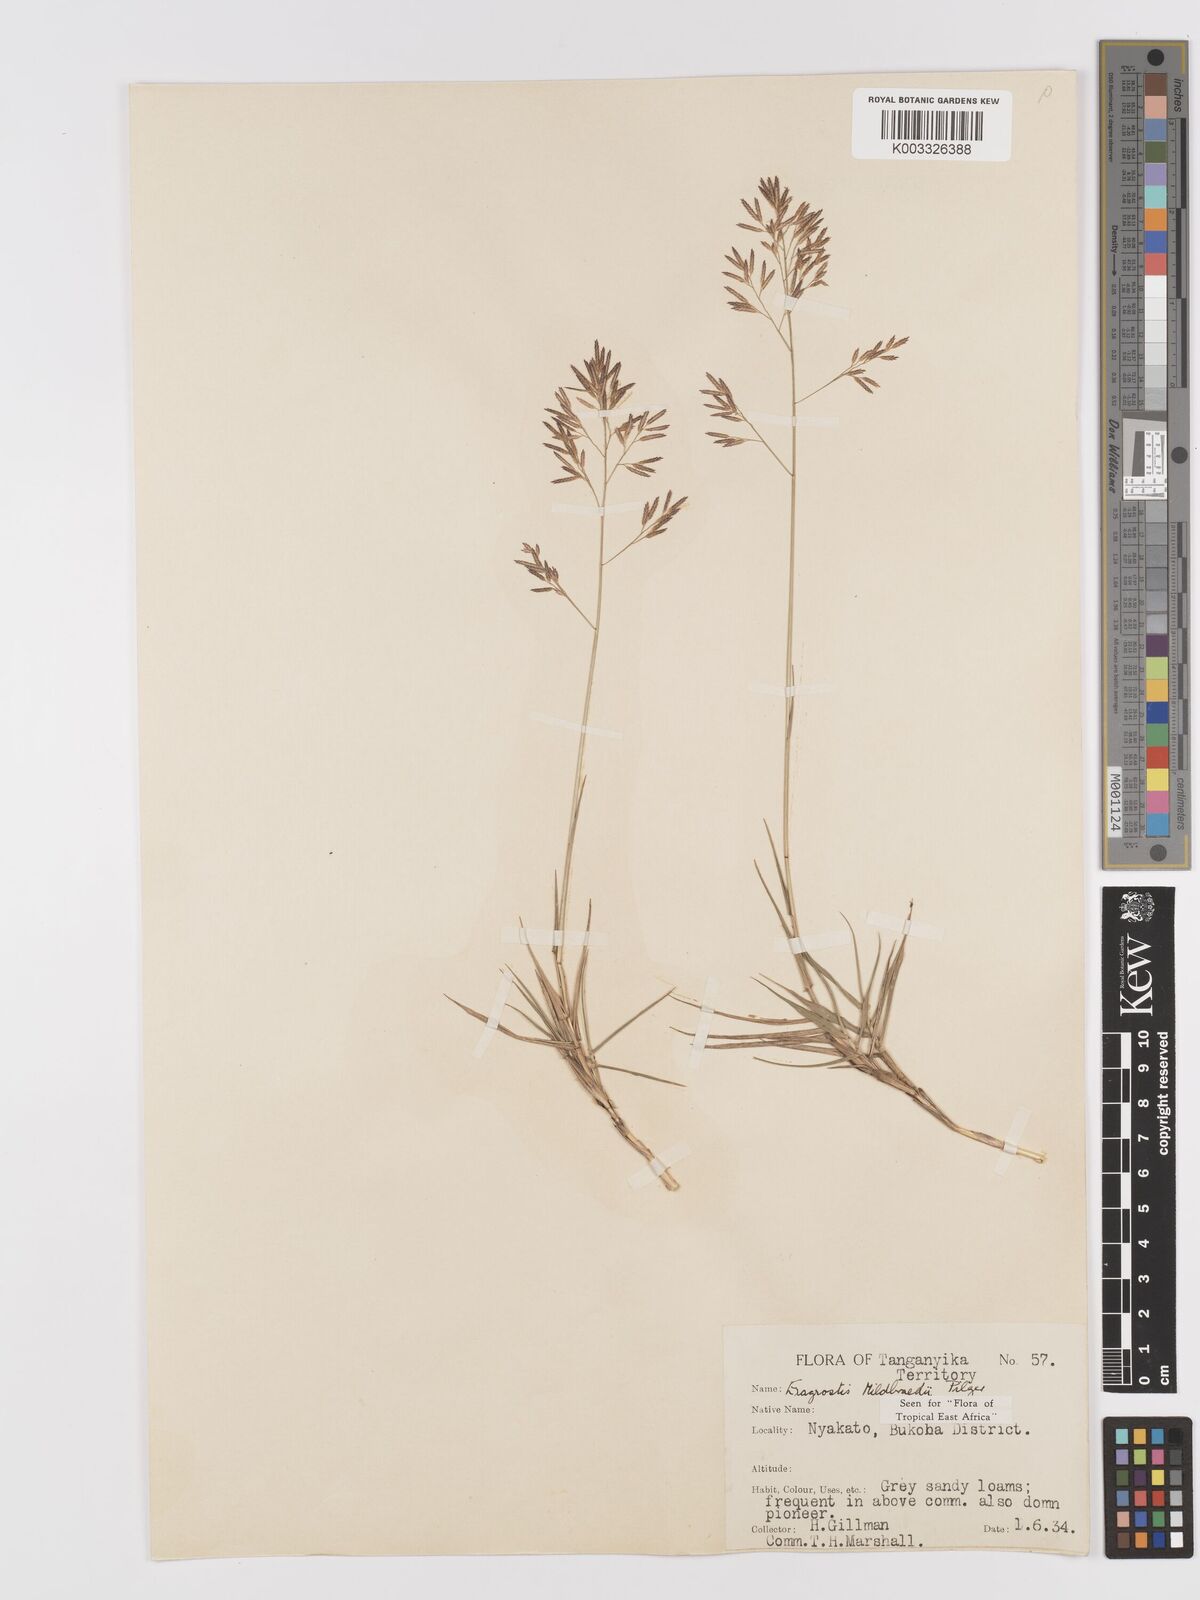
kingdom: Plantae
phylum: Tracheophyta
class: Liliopsida
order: Poales
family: Poaceae
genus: Eragrostis
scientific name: Eragrostis mildbraedii
